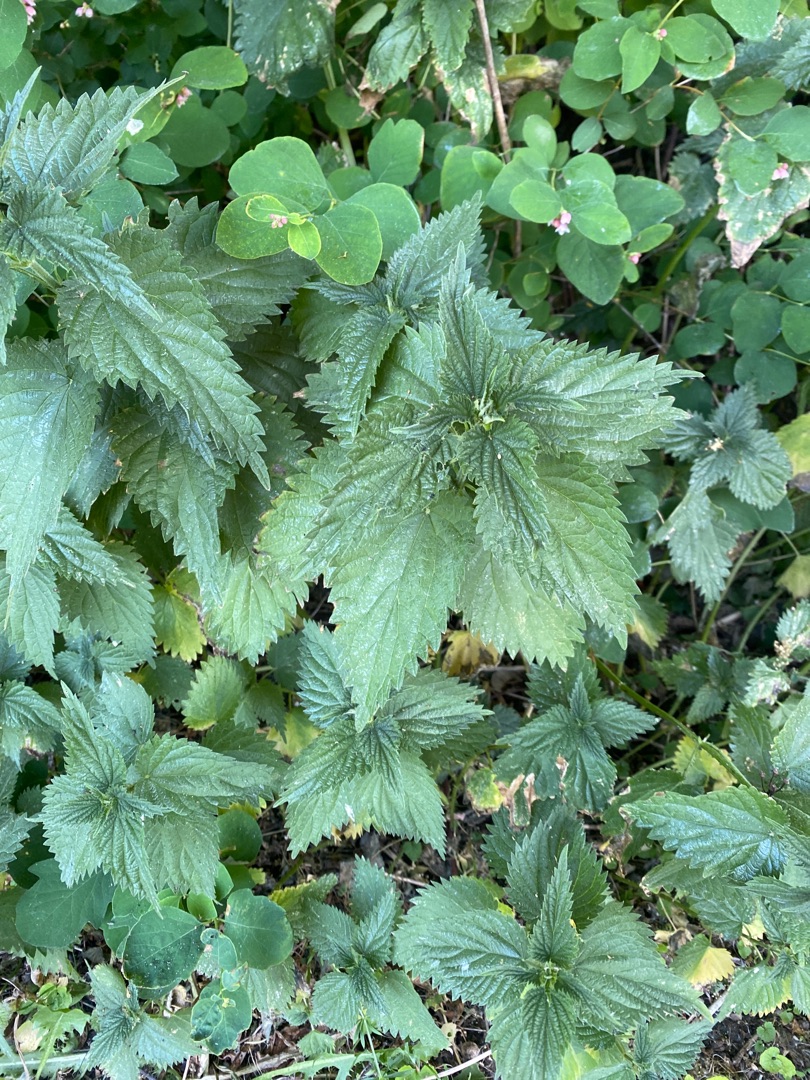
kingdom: Plantae
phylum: Tracheophyta
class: Magnoliopsida
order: Rosales
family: Urticaceae
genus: Urtica
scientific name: Urtica dioica
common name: Stor nælde
